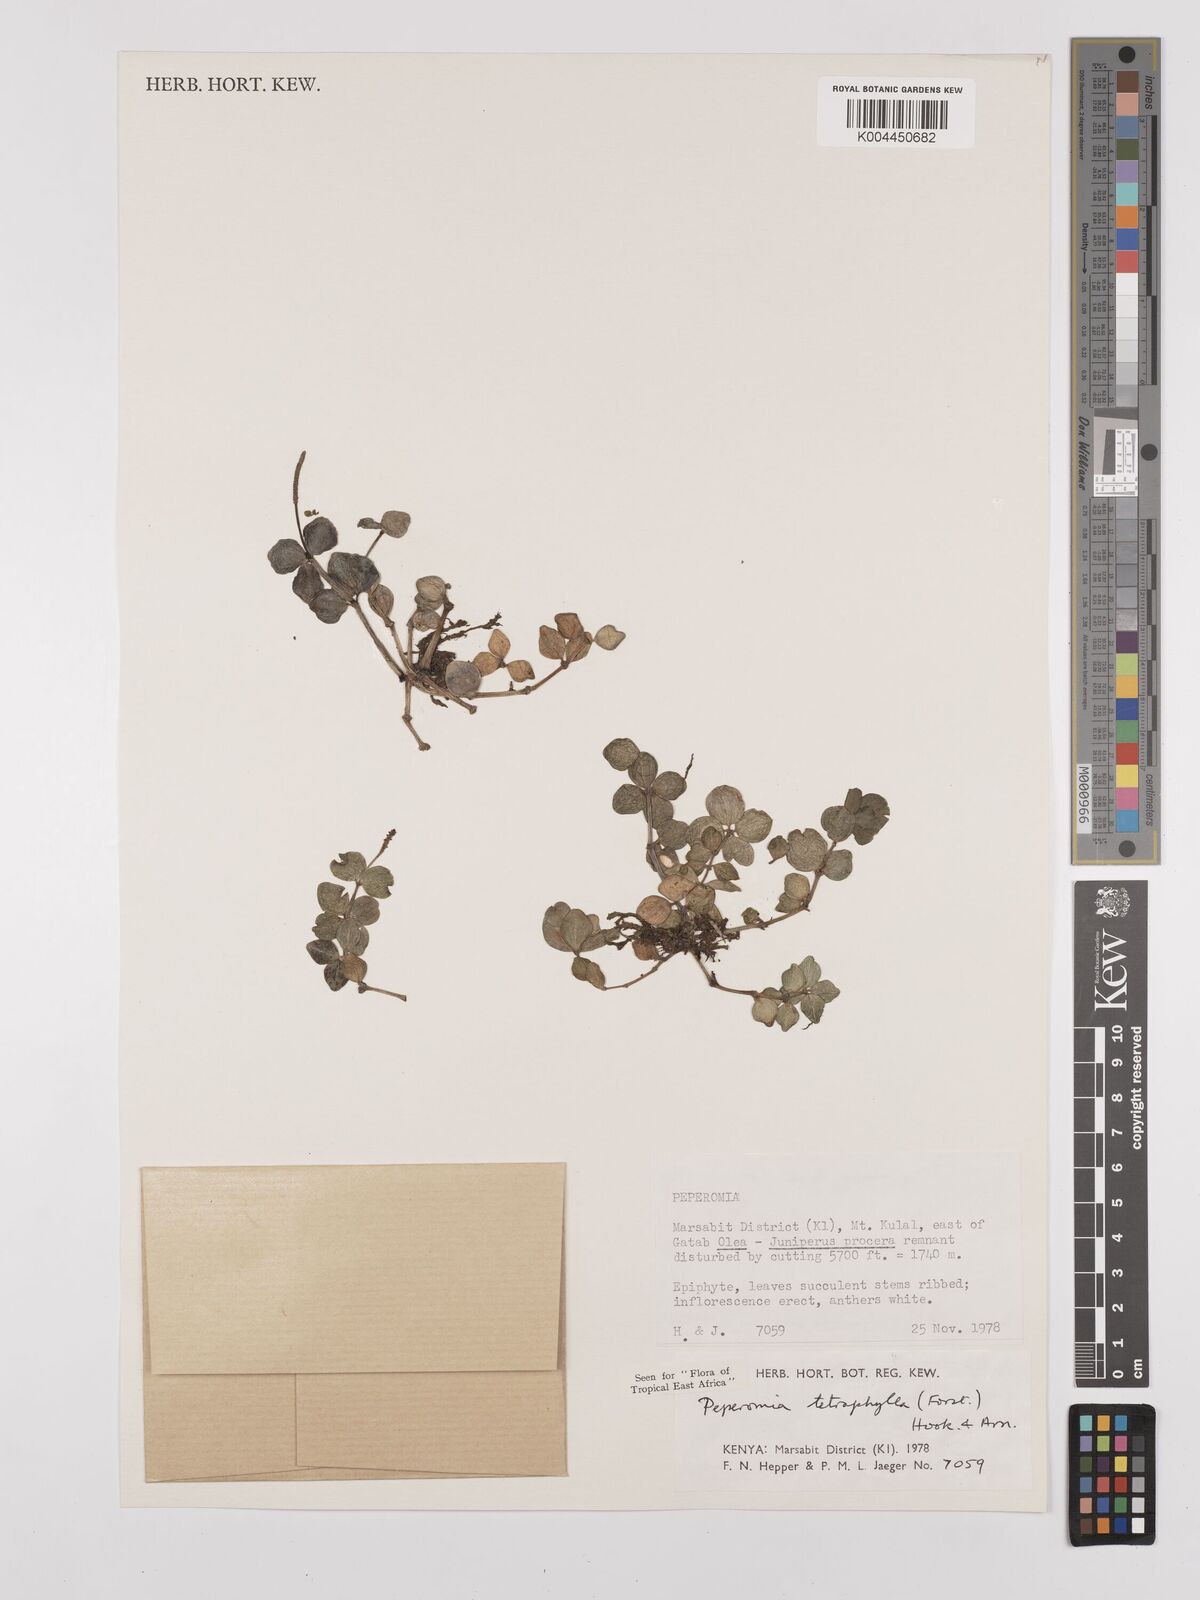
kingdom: Plantae
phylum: Tracheophyta
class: Magnoliopsida
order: Piperales
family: Piperaceae
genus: Peperomia
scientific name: Peperomia tetraphylla
